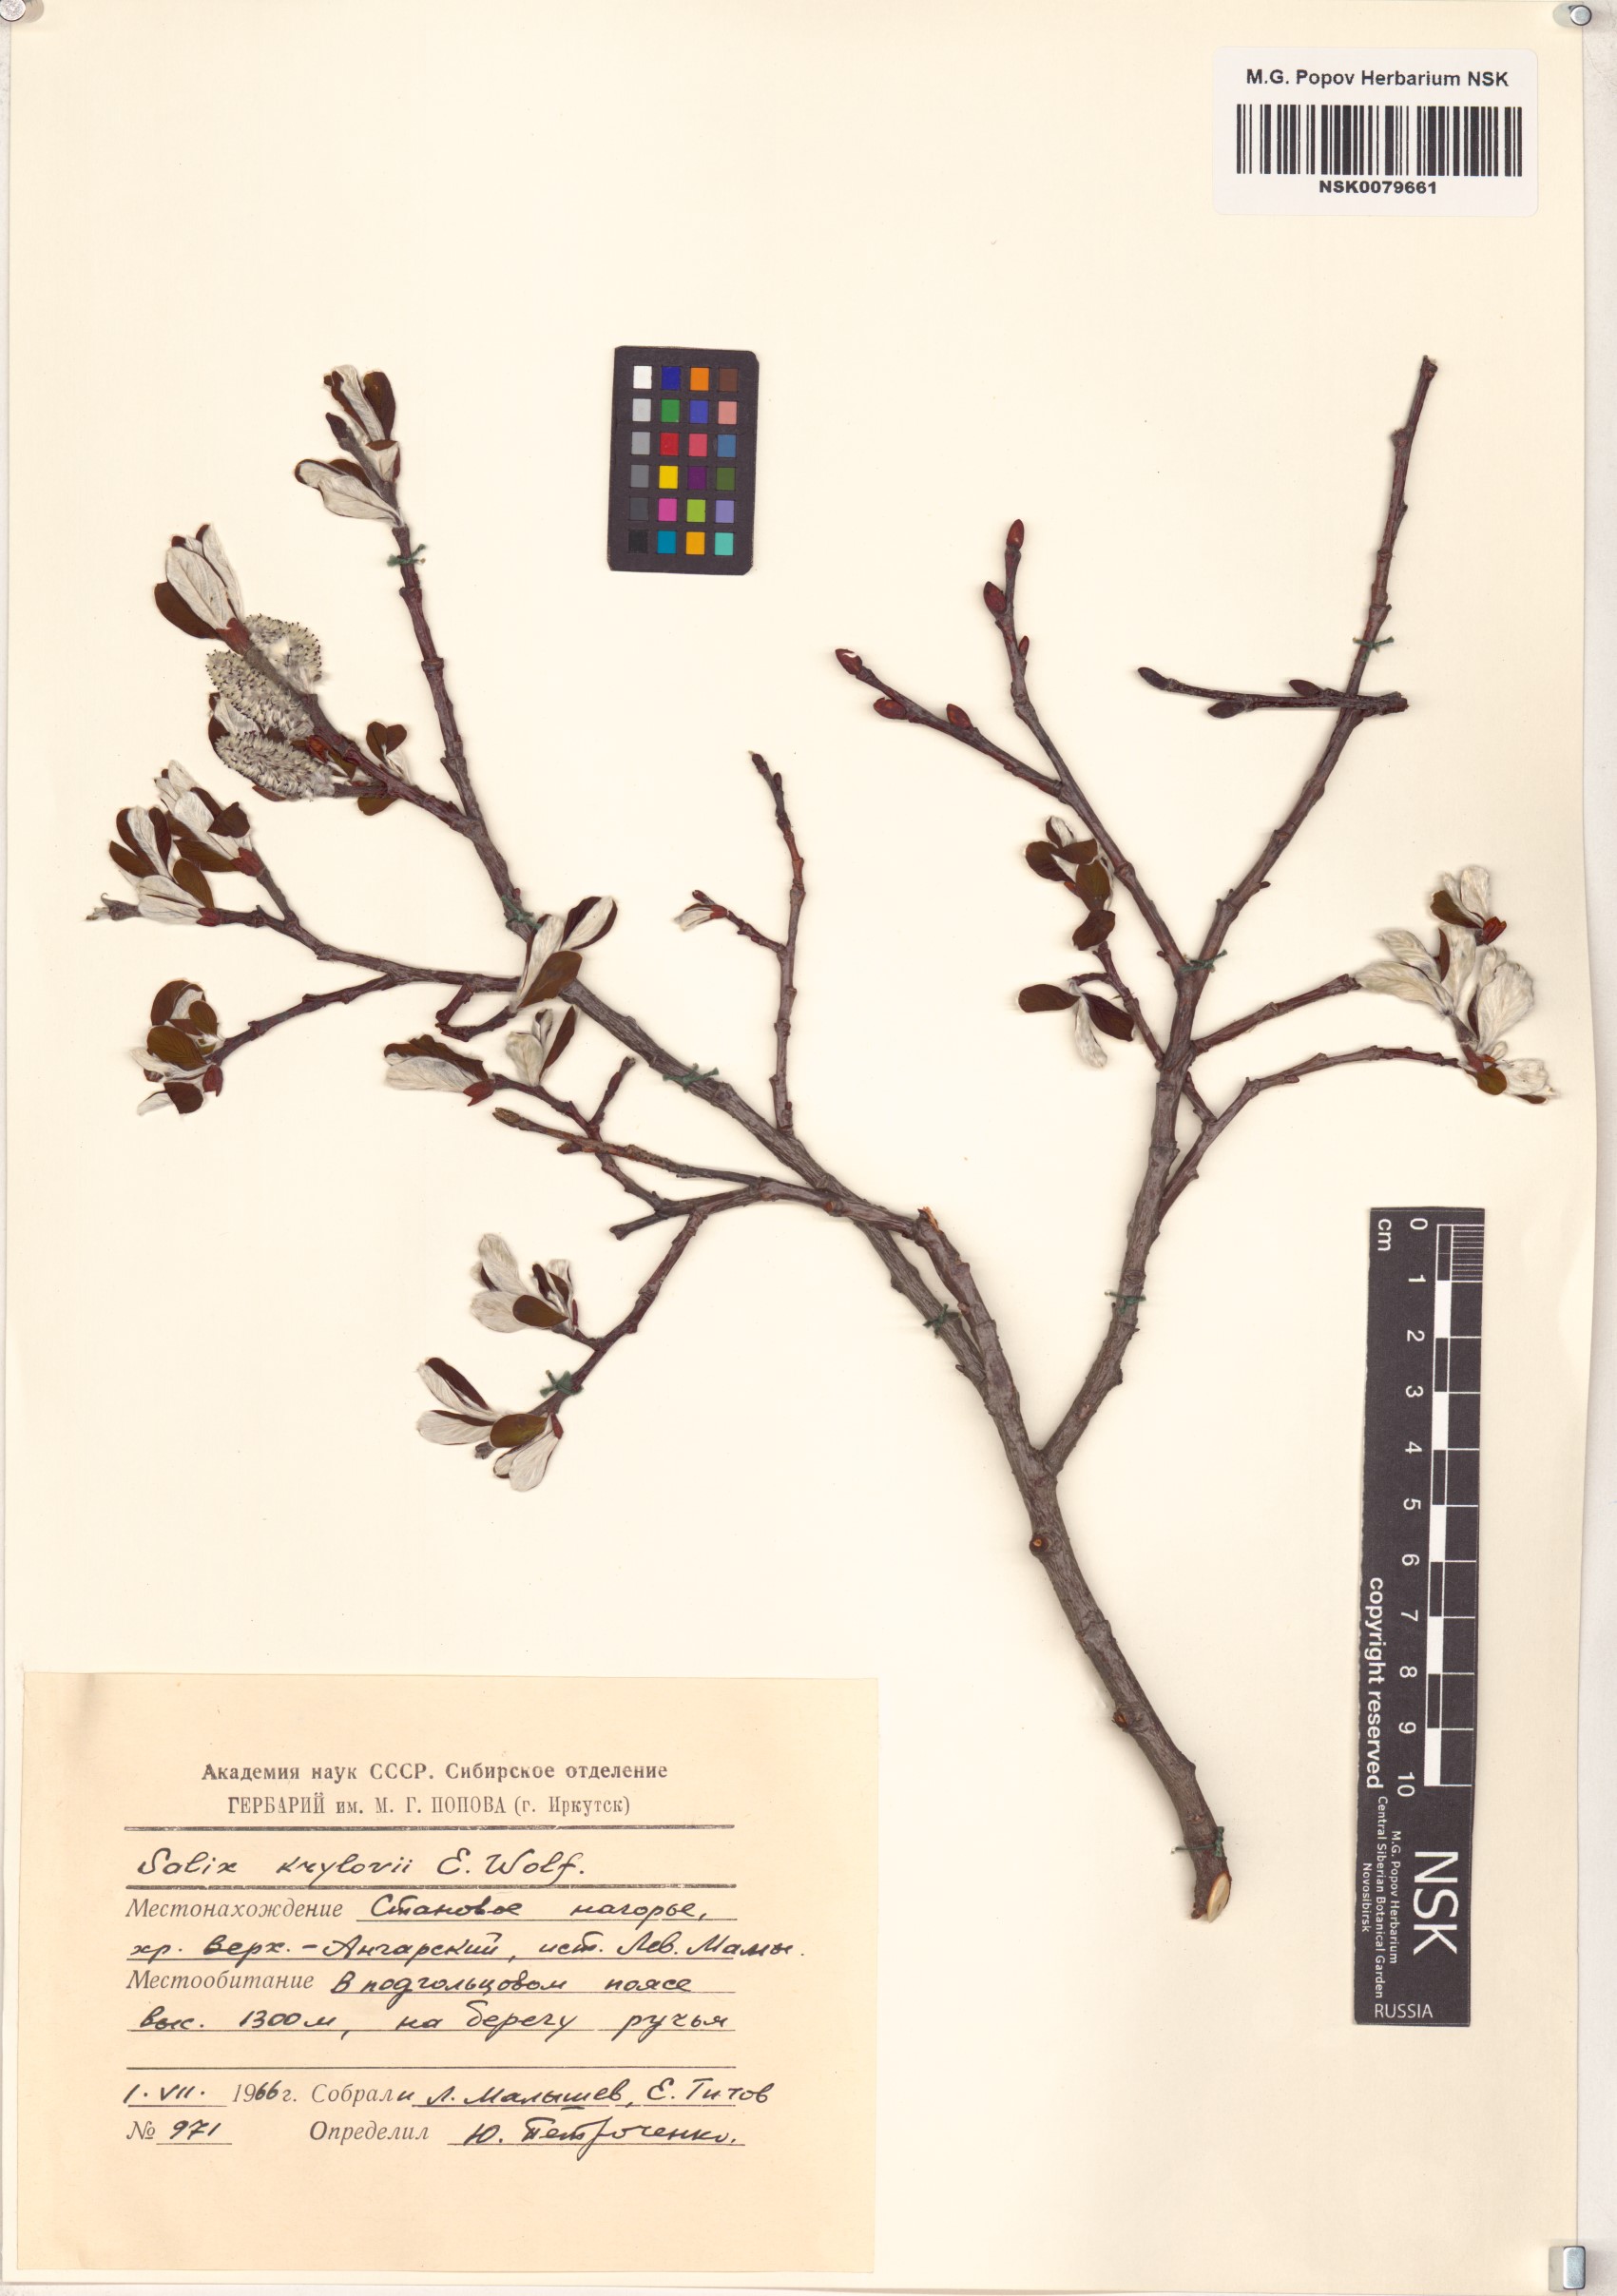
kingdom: Plantae
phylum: Tracheophyta
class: Magnoliopsida
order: Malpighiales
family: Salicaceae
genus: Salix
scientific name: Salix krylovii
